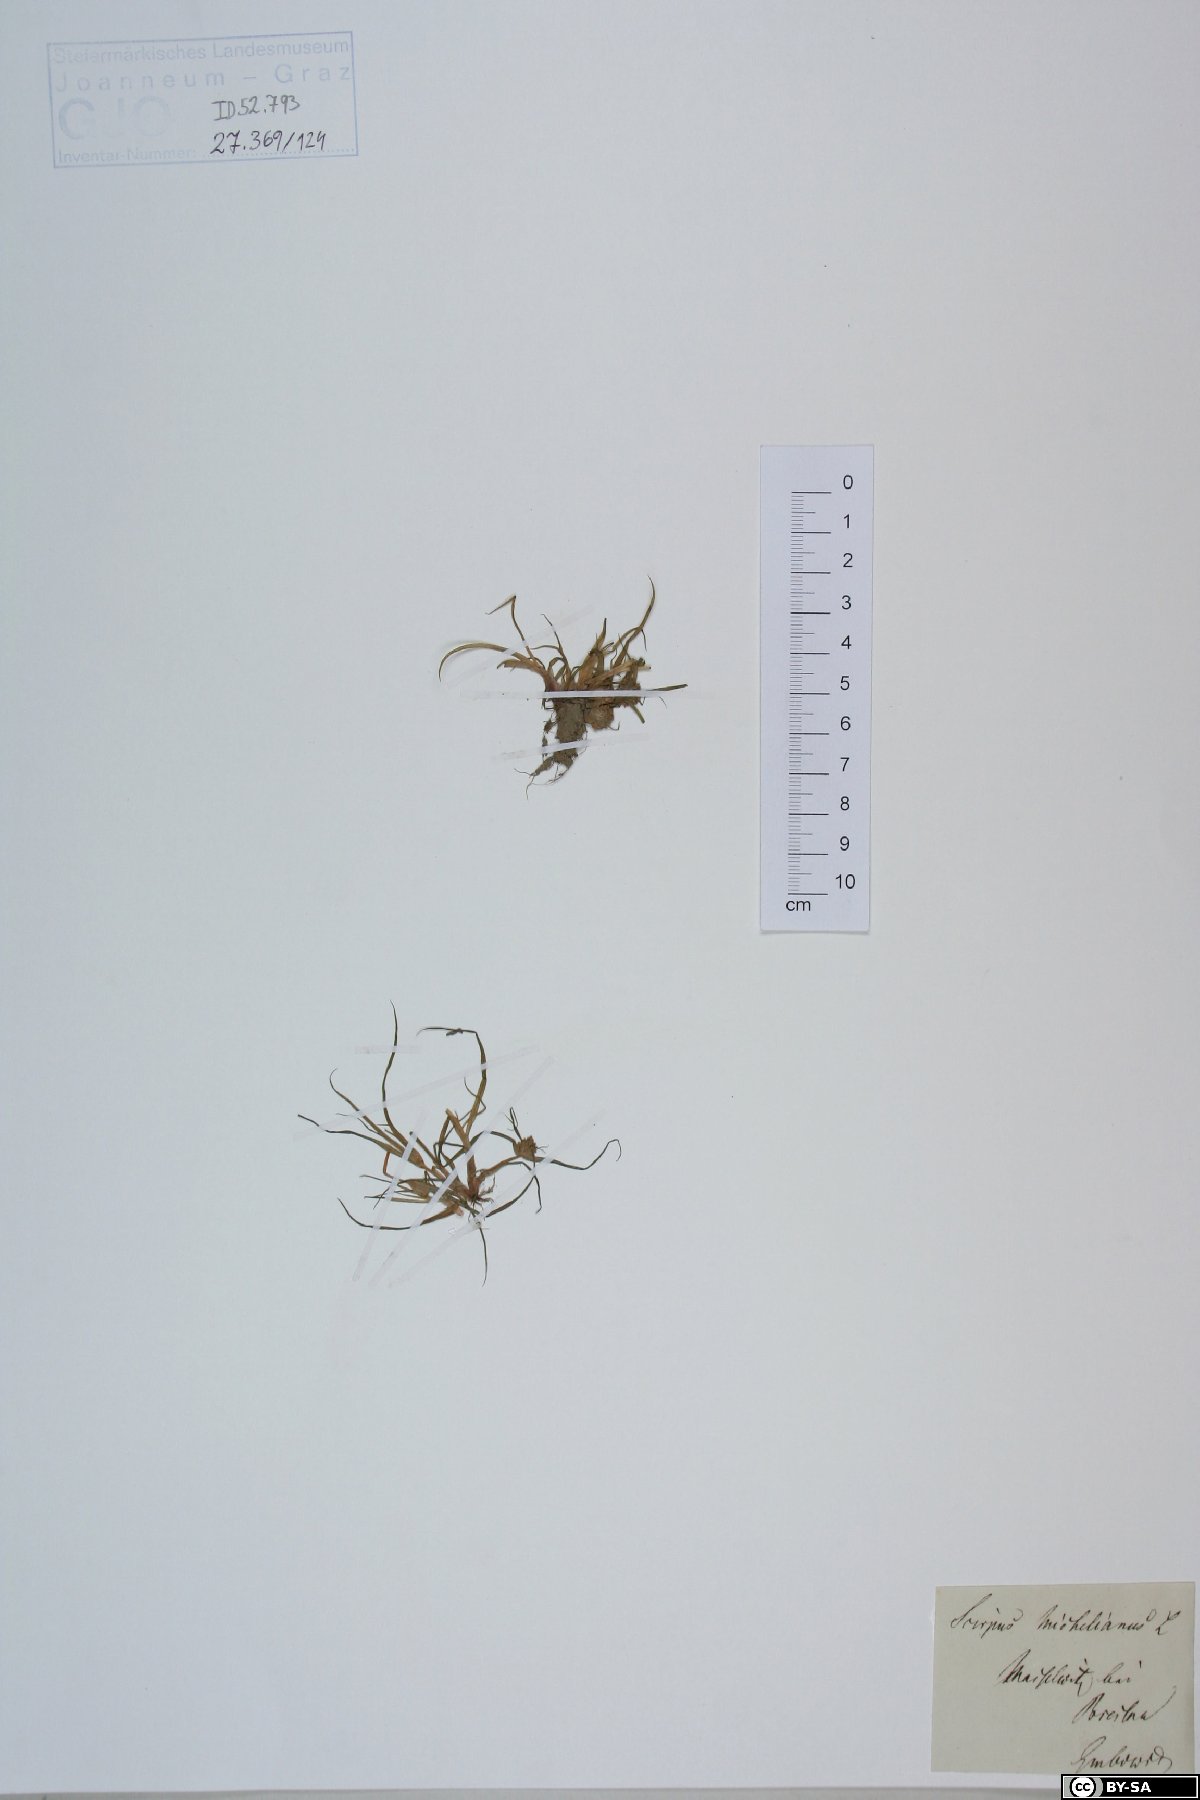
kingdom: Plantae
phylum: Tracheophyta
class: Liliopsida
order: Poales
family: Cyperaceae
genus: Cyperus
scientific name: Cyperus michelianus
